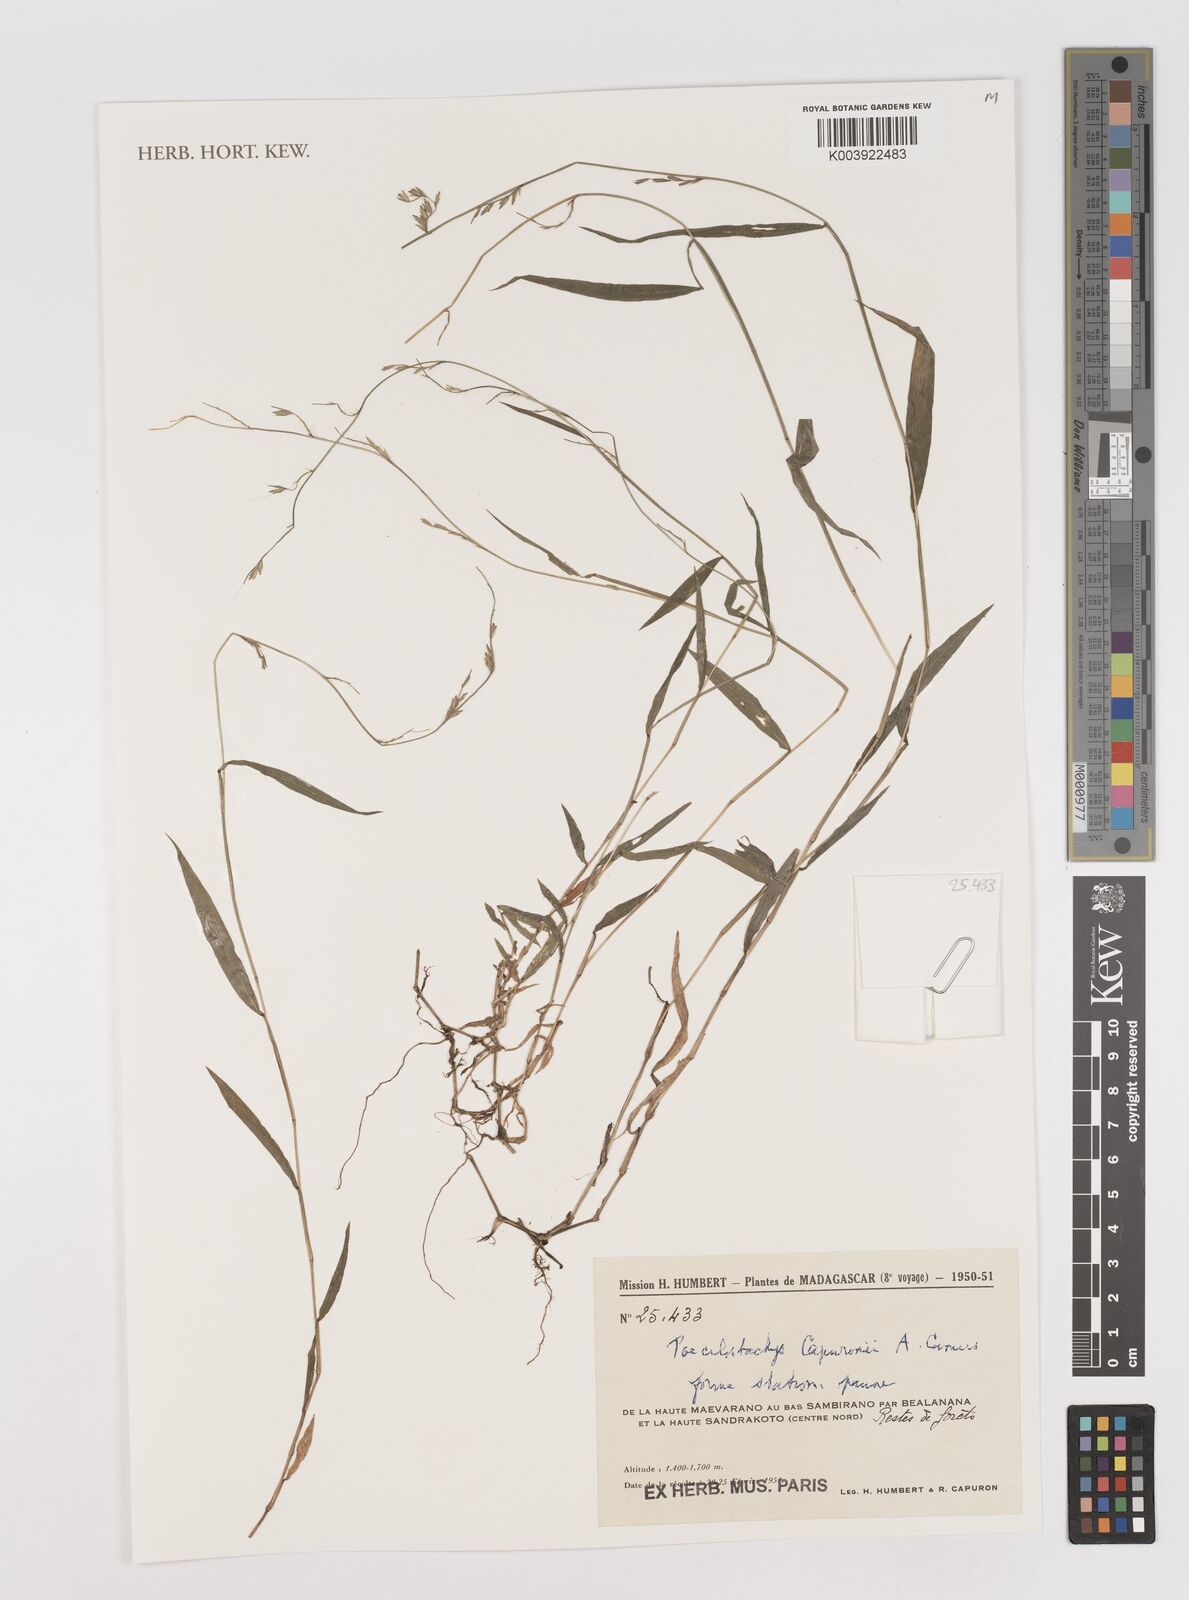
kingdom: Plantae
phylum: Tracheophyta
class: Liliopsida
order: Poales
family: Poaceae
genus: Poecilostachys
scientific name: Poecilostachys hildebrandtii
